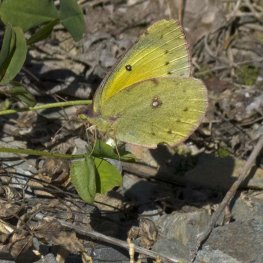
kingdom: Animalia
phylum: Arthropoda
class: Insecta
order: Lepidoptera
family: Pieridae
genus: Colias
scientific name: Colias eurytheme
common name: Orange Sulphur
